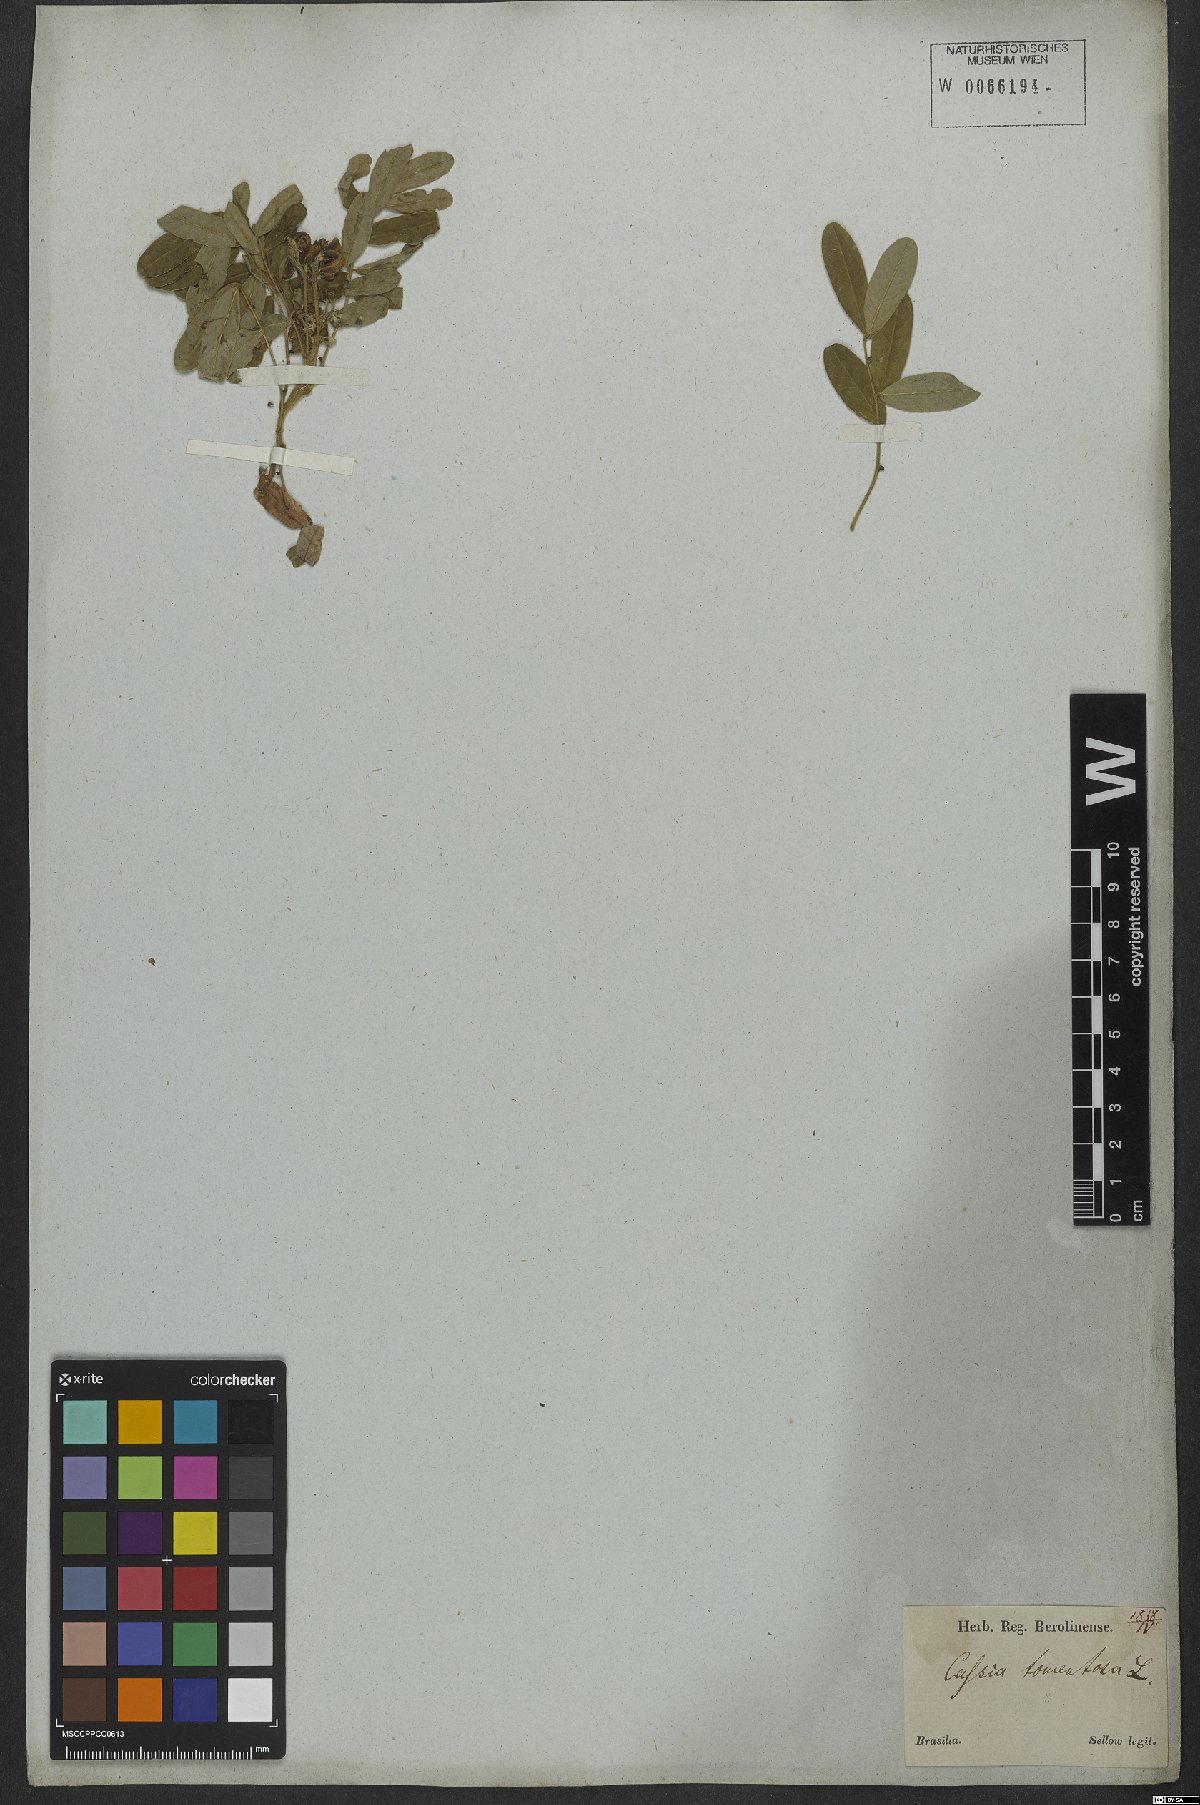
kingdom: Plantae
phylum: Tracheophyta
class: Magnoliopsida
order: Fabales
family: Fabaceae
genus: Senna
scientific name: Senna multiglandulosa
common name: Glandular senna
